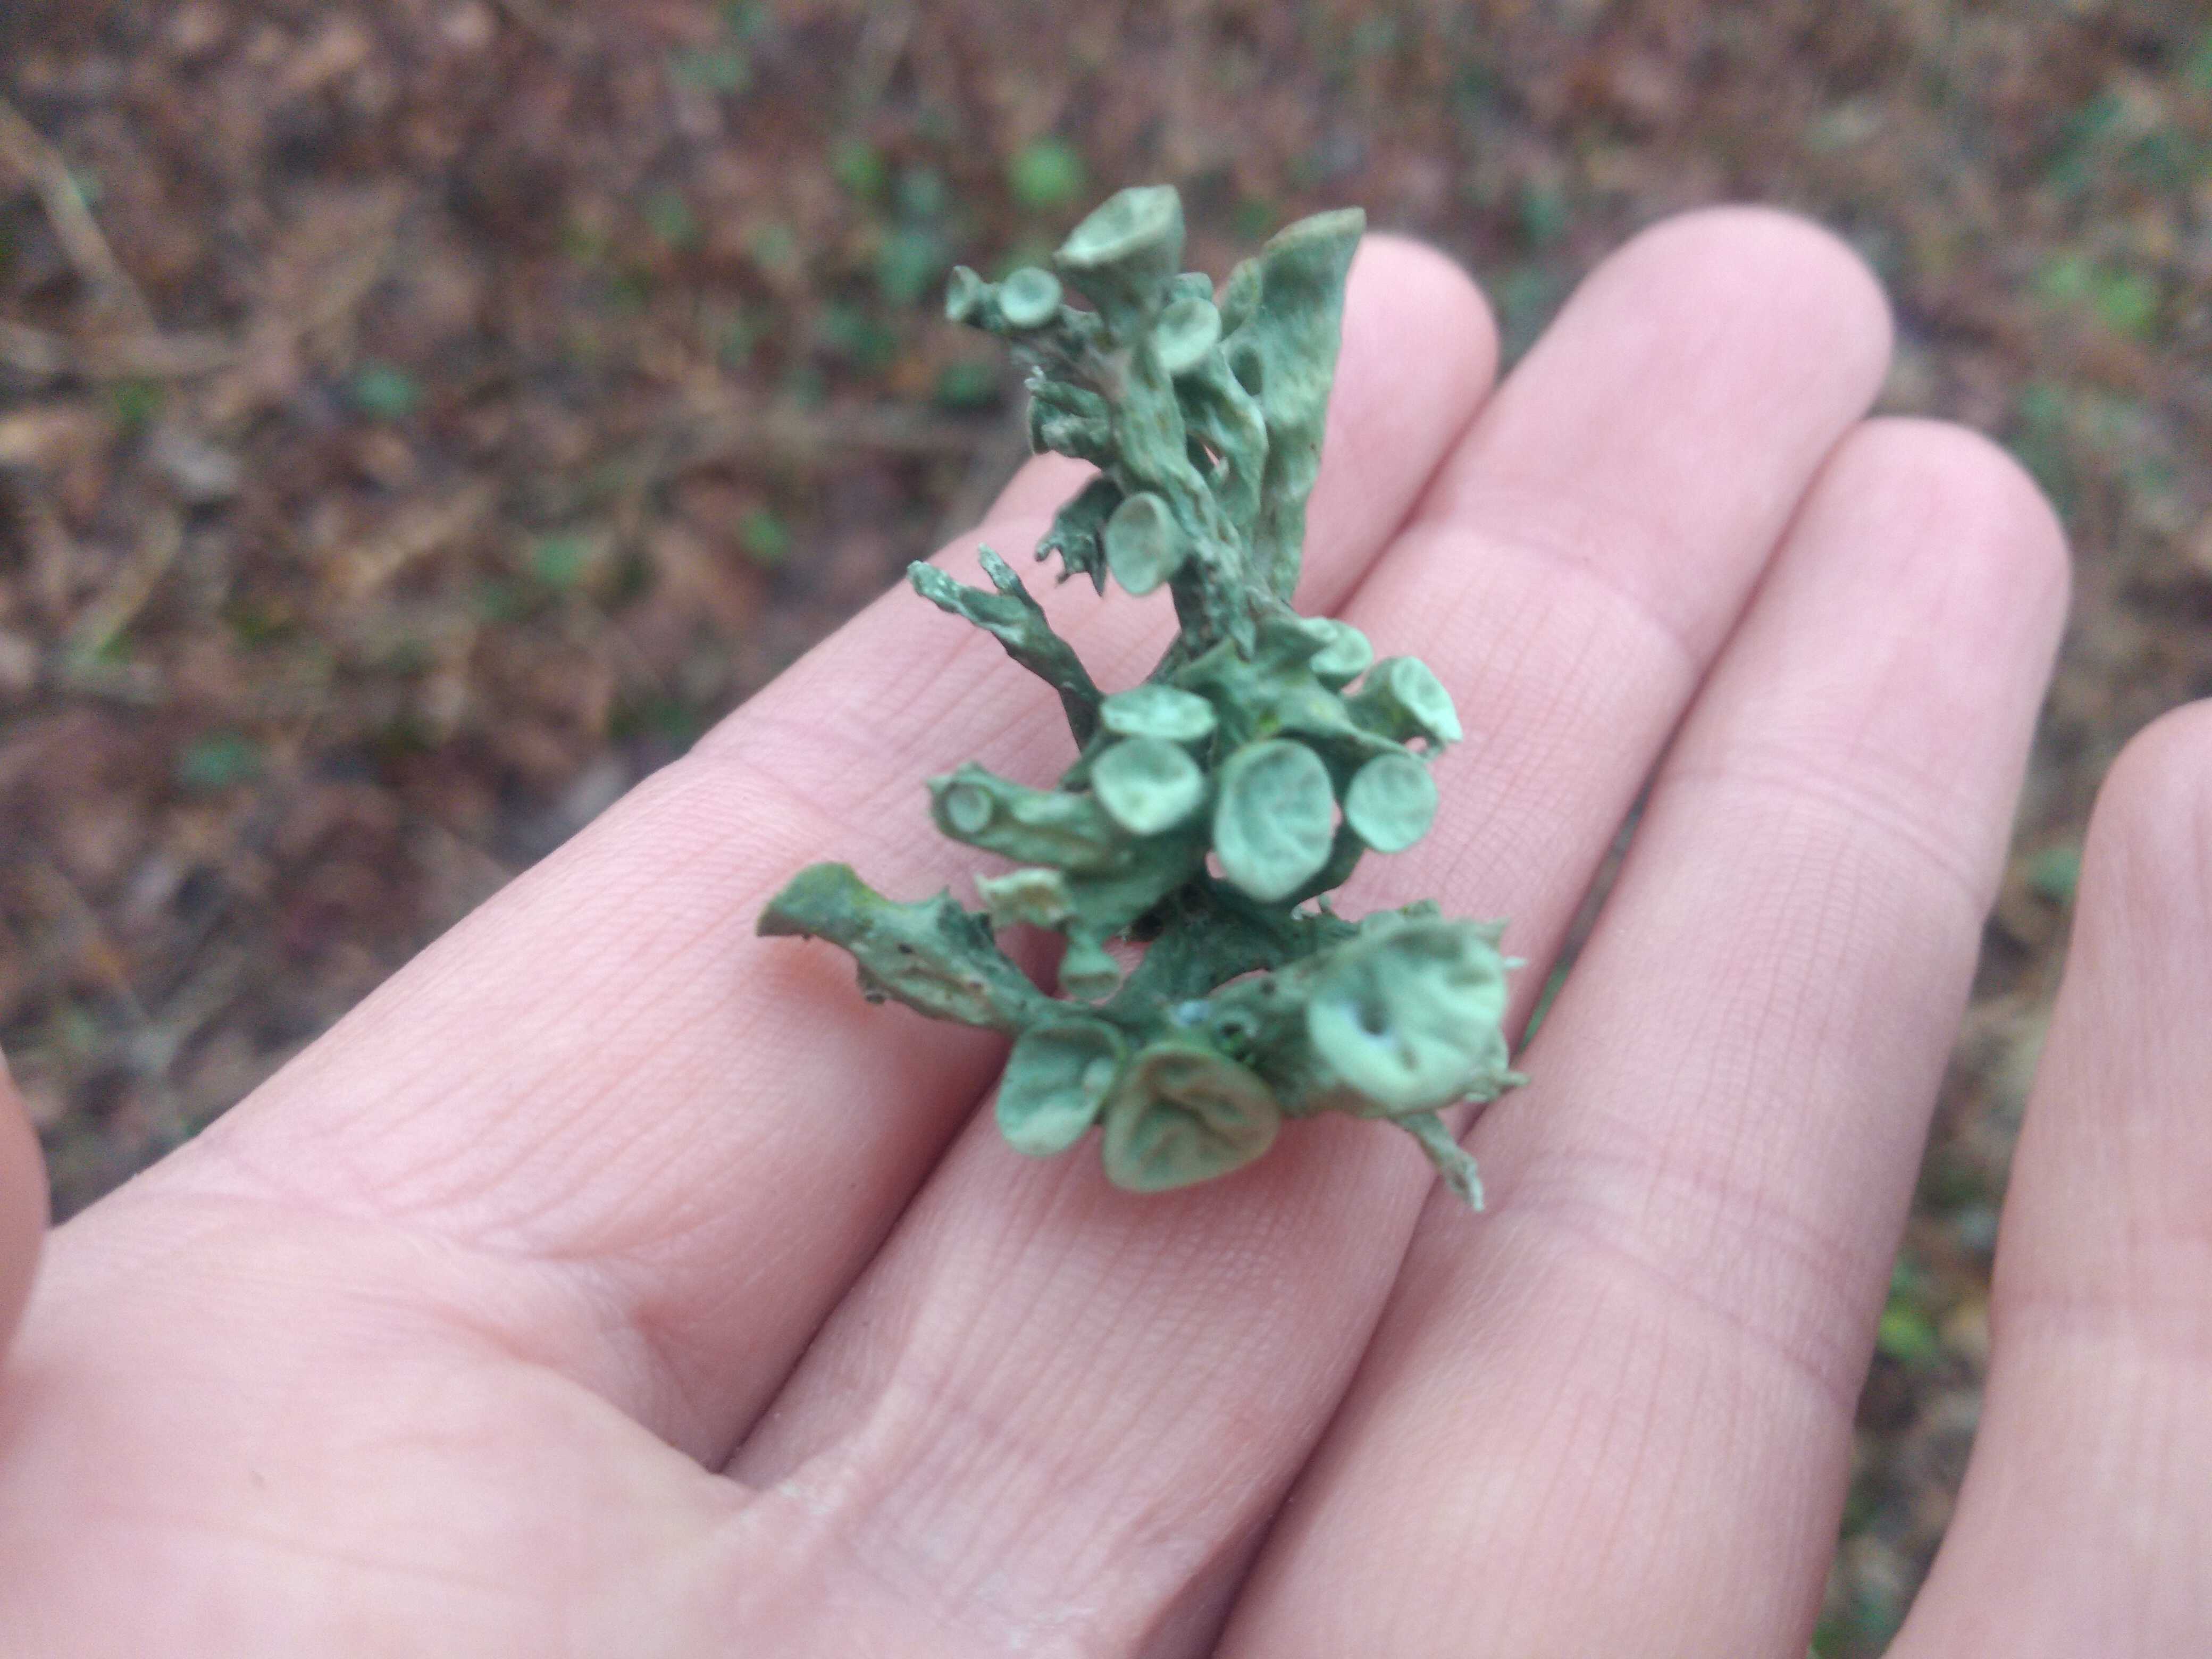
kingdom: Fungi
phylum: Ascomycota
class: Lecanoromycetes
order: Lecanorales
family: Ramalinaceae
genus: Ramalina
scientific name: Ramalina fastigiata
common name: tue-grenlav
